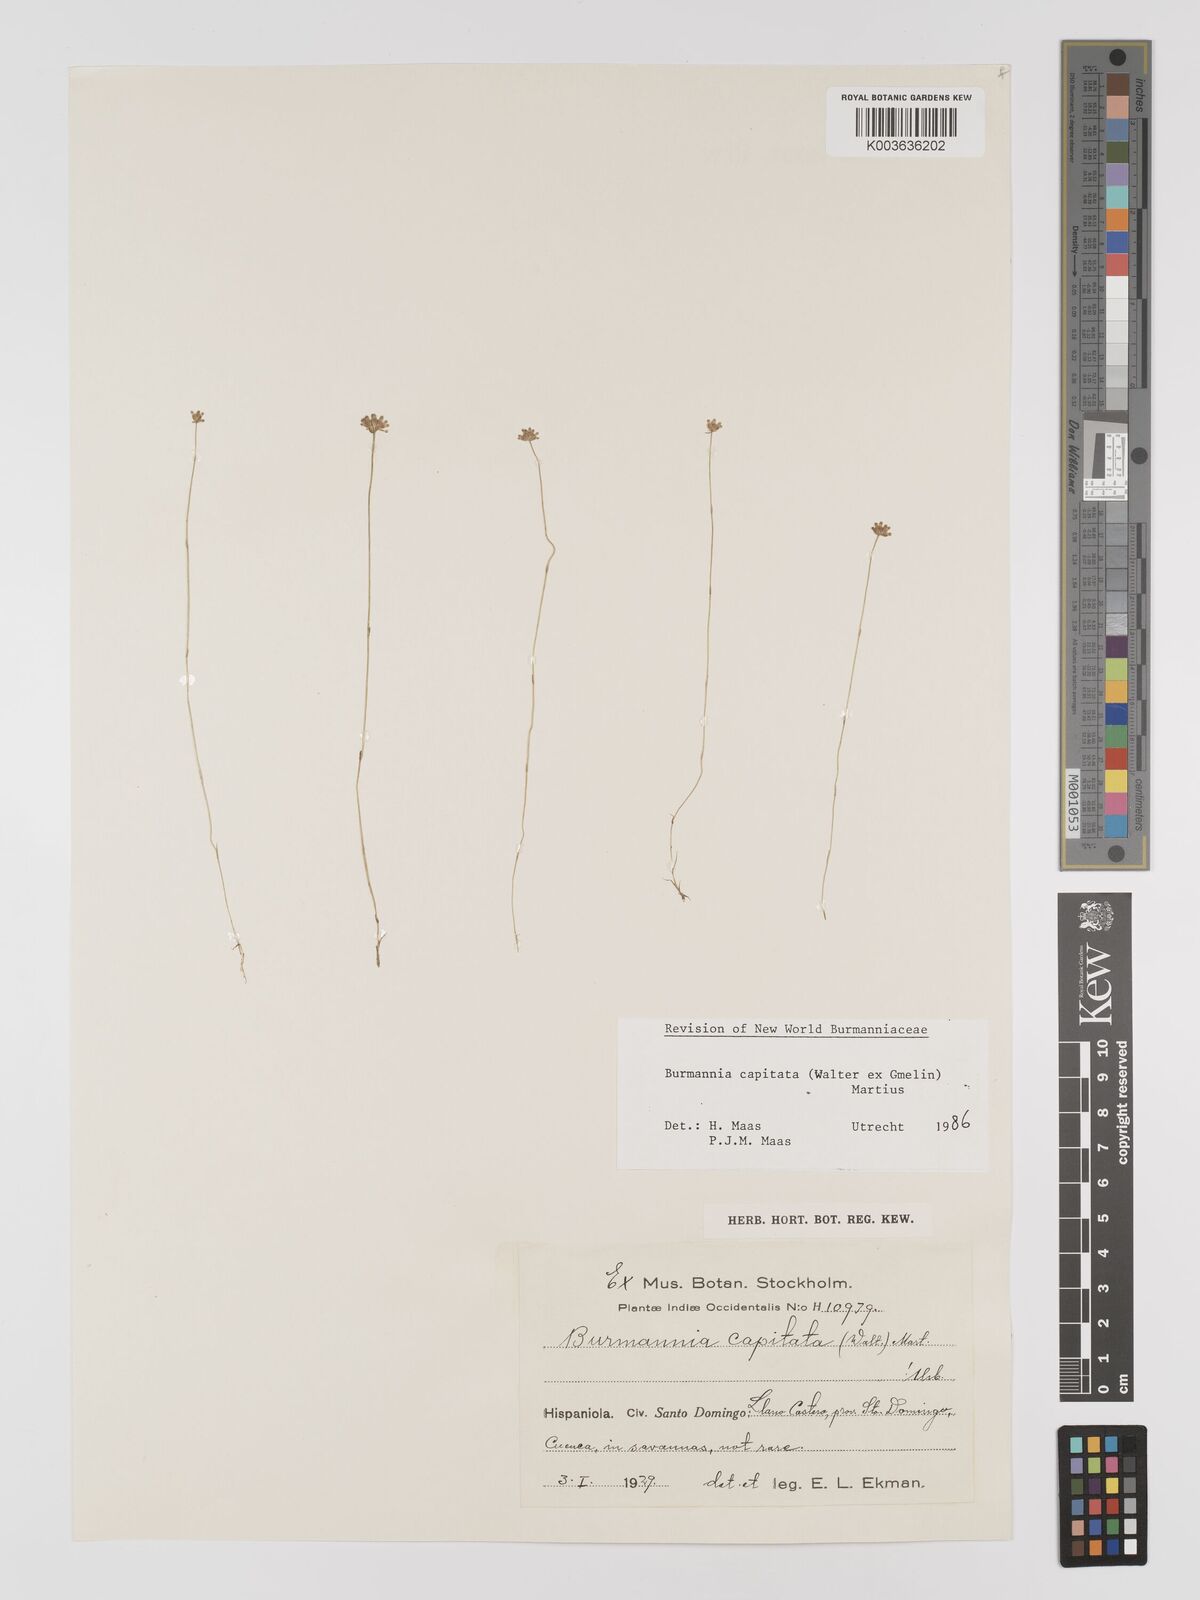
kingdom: Plantae
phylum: Tracheophyta
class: Liliopsida
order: Dioscoreales
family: Burmanniaceae
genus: Burmannia
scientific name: Burmannia capitata
